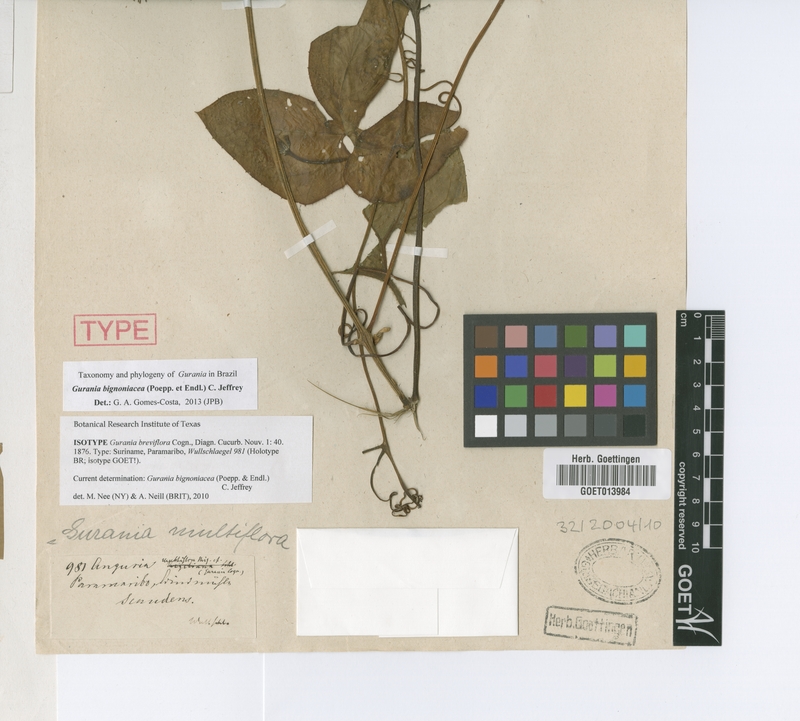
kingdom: Plantae
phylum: Tracheophyta
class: Magnoliopsida
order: Cucurbitales
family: Cucurbitaceae
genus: Gurania
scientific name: Gurania bignoniacea
